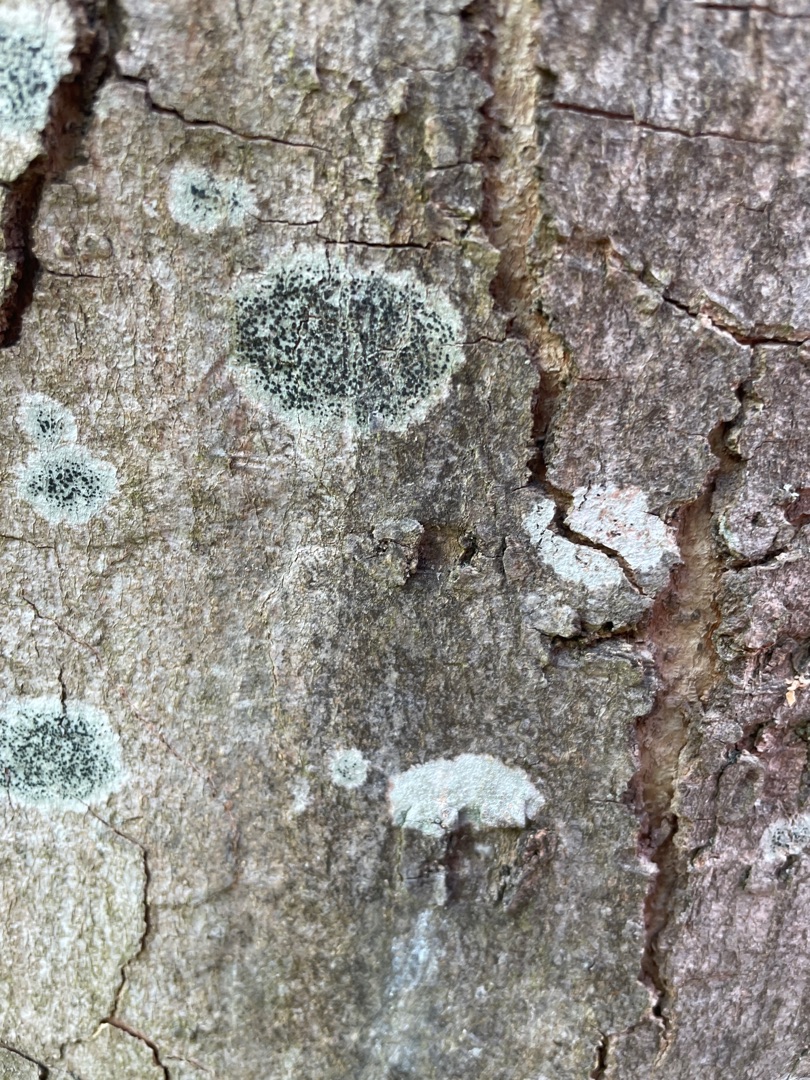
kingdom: Fungi
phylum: Ascomycota
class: Lecanoromycetes
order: Lecanorales
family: Lecanoraceae
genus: Lecidella
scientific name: Lecidella elaeochroma
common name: Grågrøn skivelav
